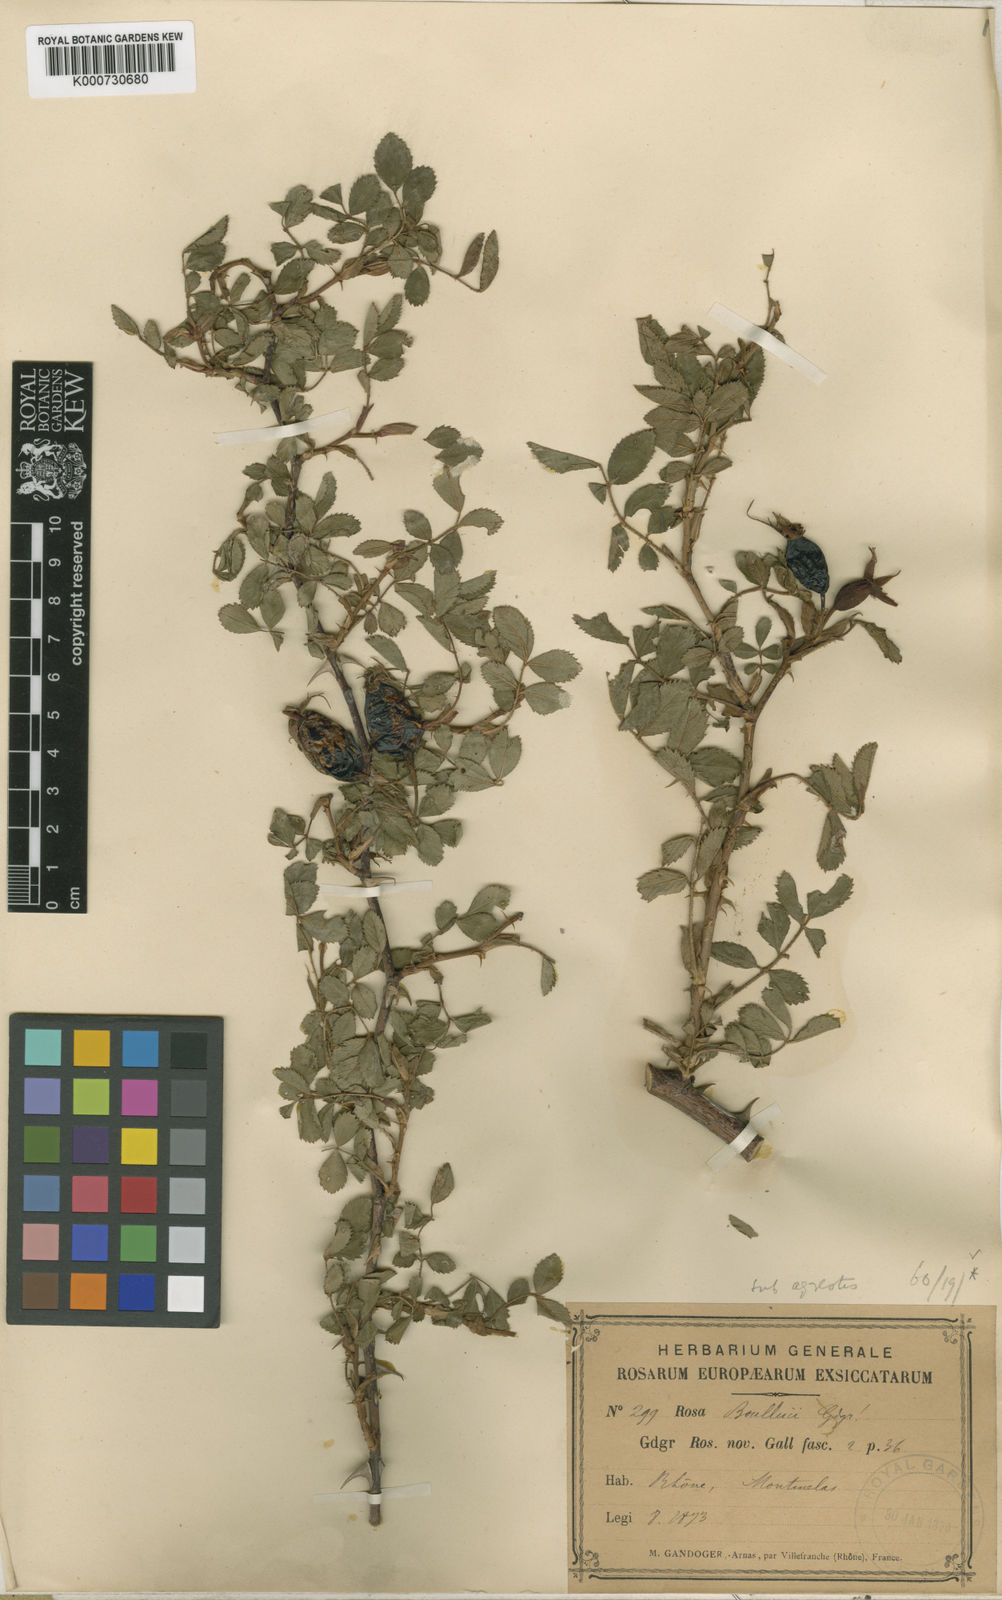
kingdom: Plantae
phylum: Tracheophyta
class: Magnoliopsida
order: Rosales
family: Rosaceae
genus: Rosa
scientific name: Rosa agrestis
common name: Fieldbriar
